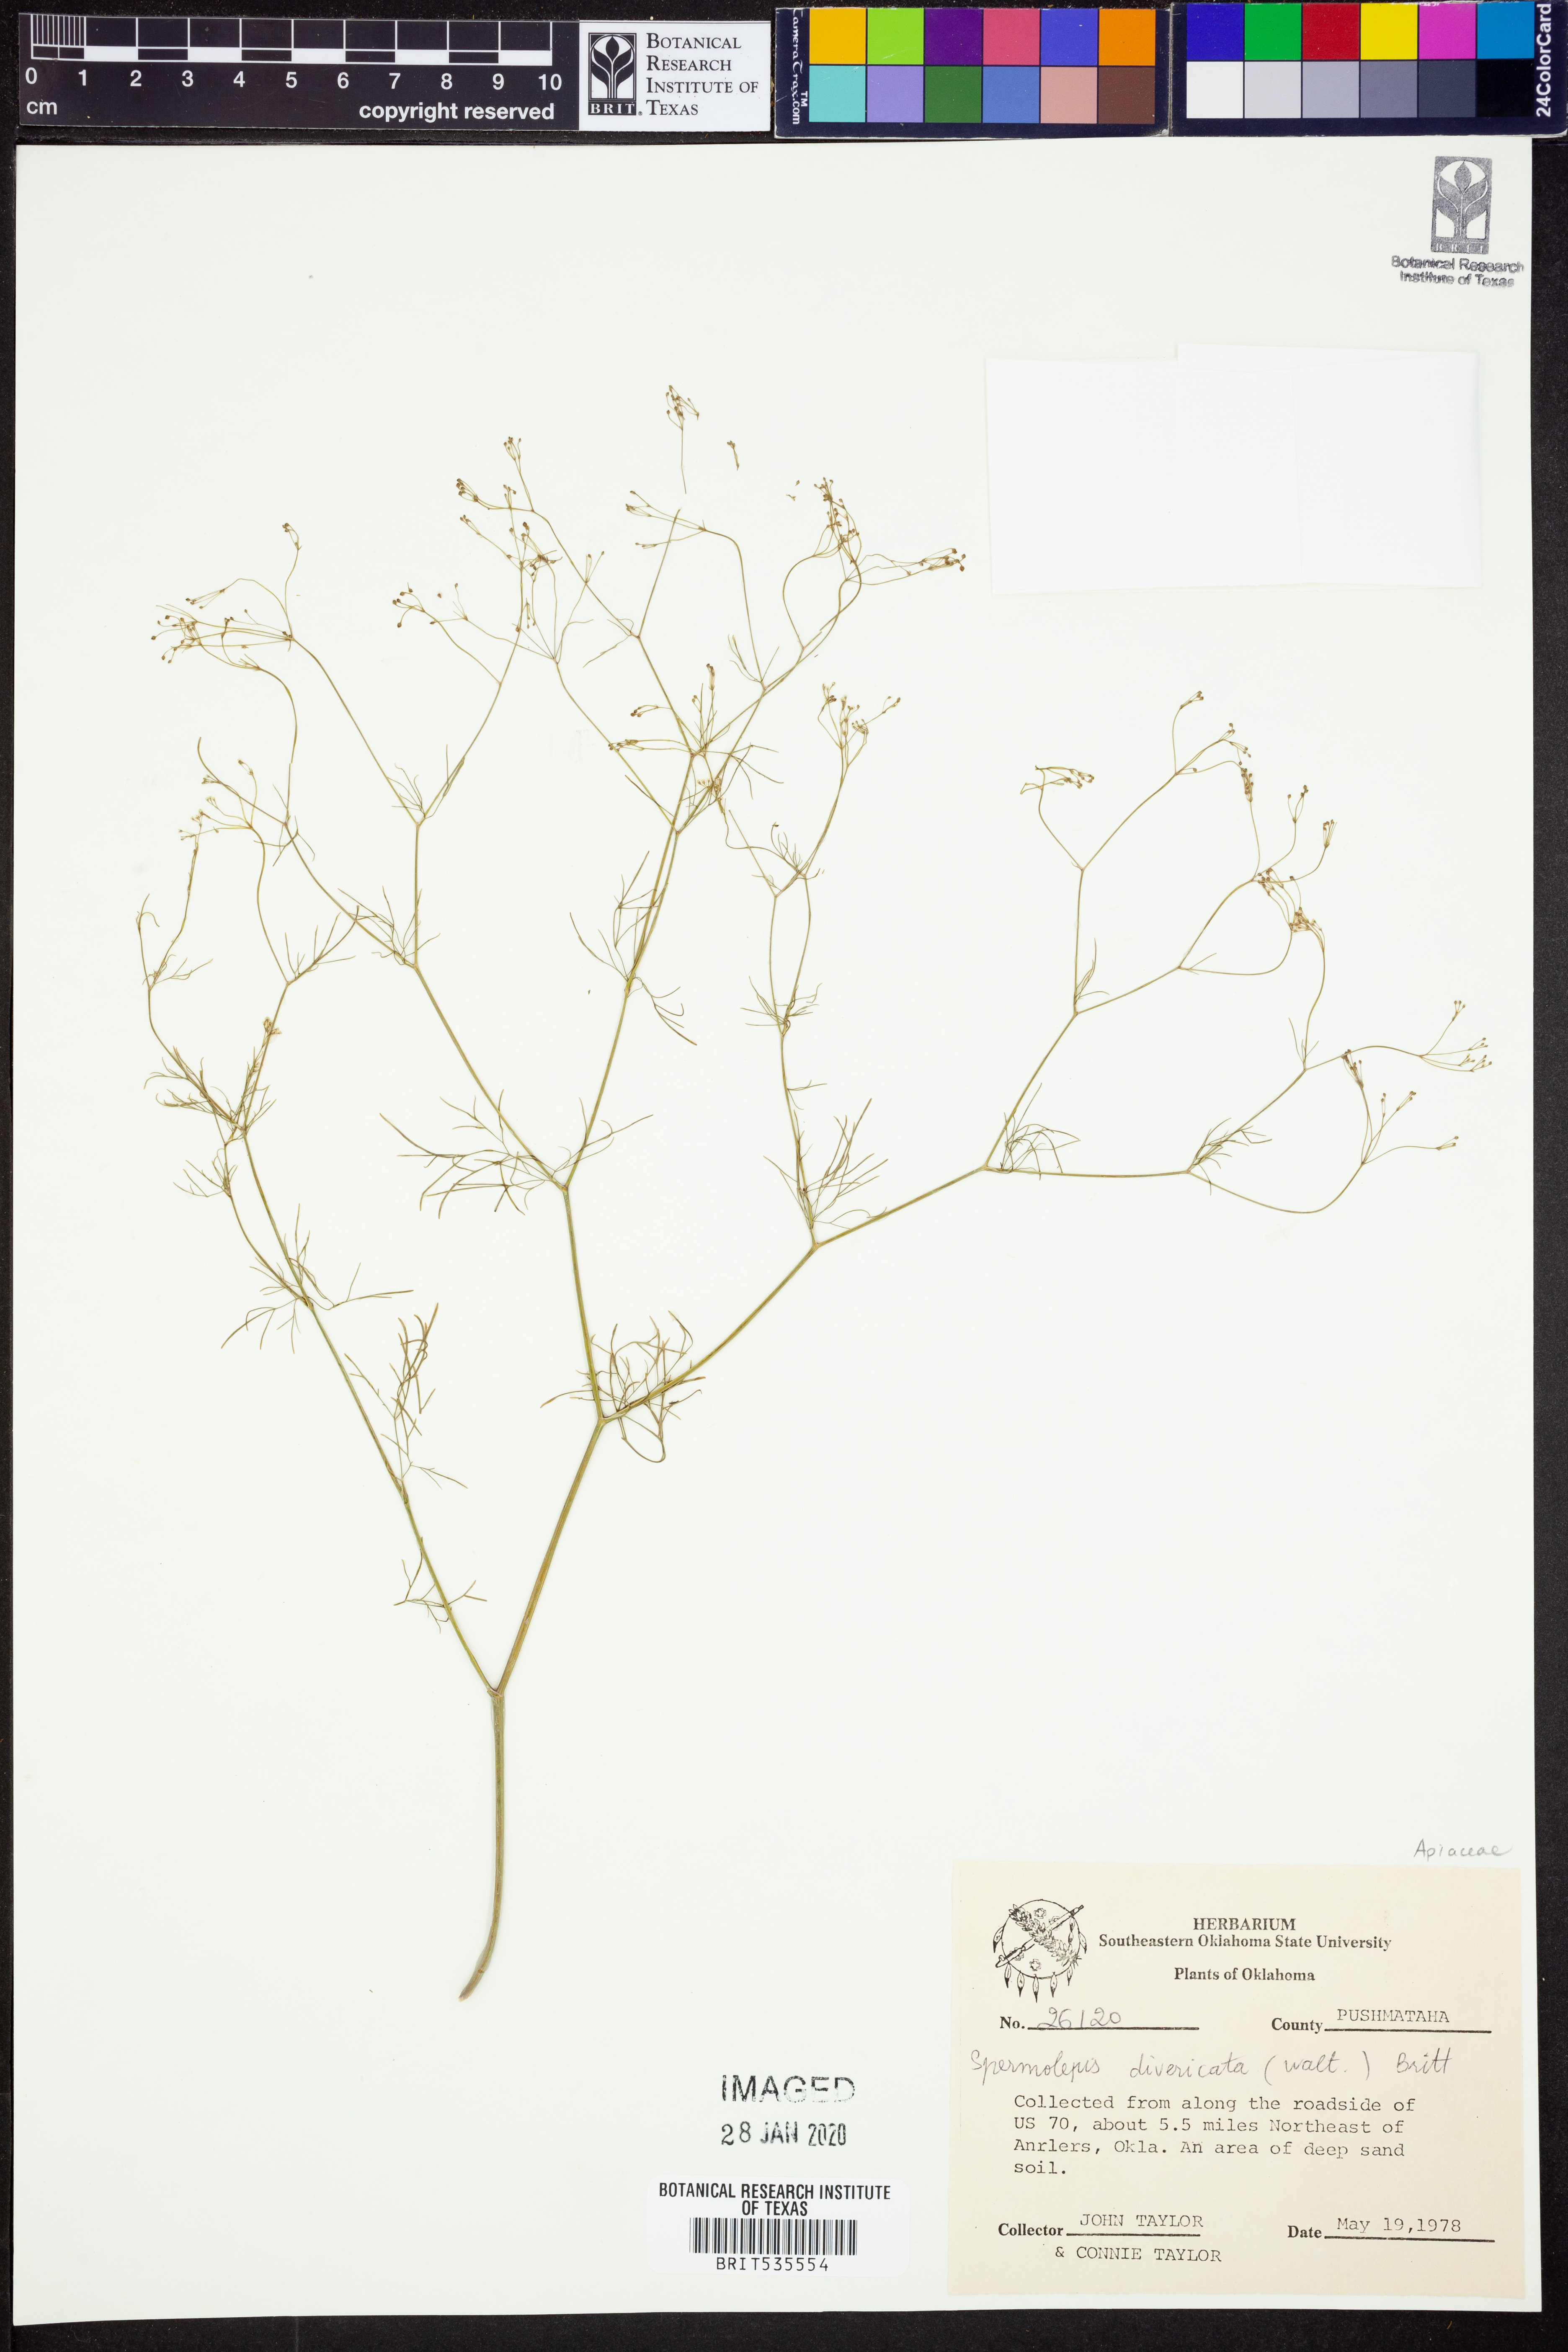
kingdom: Plantae
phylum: Tracheophyta
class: Magnoliopsida
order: Apiales
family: Apiaceae
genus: Spermolepis
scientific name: Spermolepis divaricata
